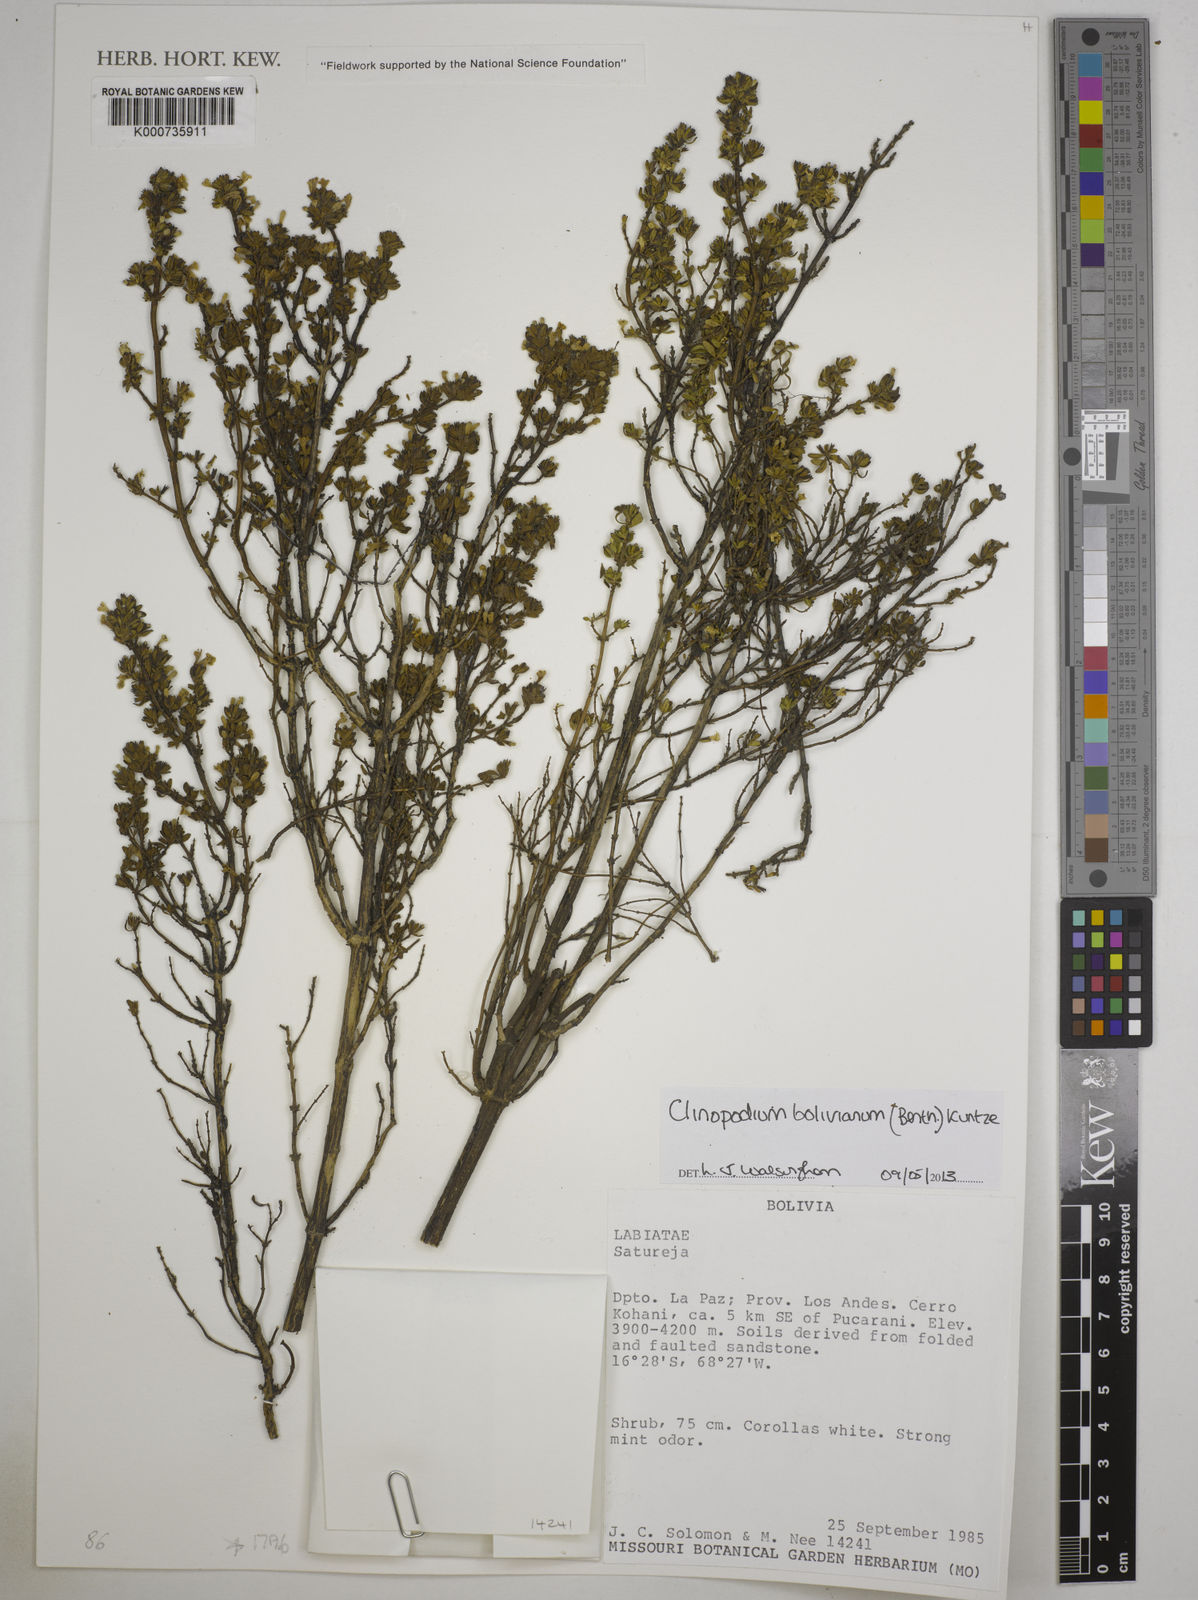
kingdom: Plantae
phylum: Tracheophyta
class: Magnoliopsida
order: Lamiales
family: Lamiaceae
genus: Clinopodium
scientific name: Clinopodium bolivianum
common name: Inca muña
